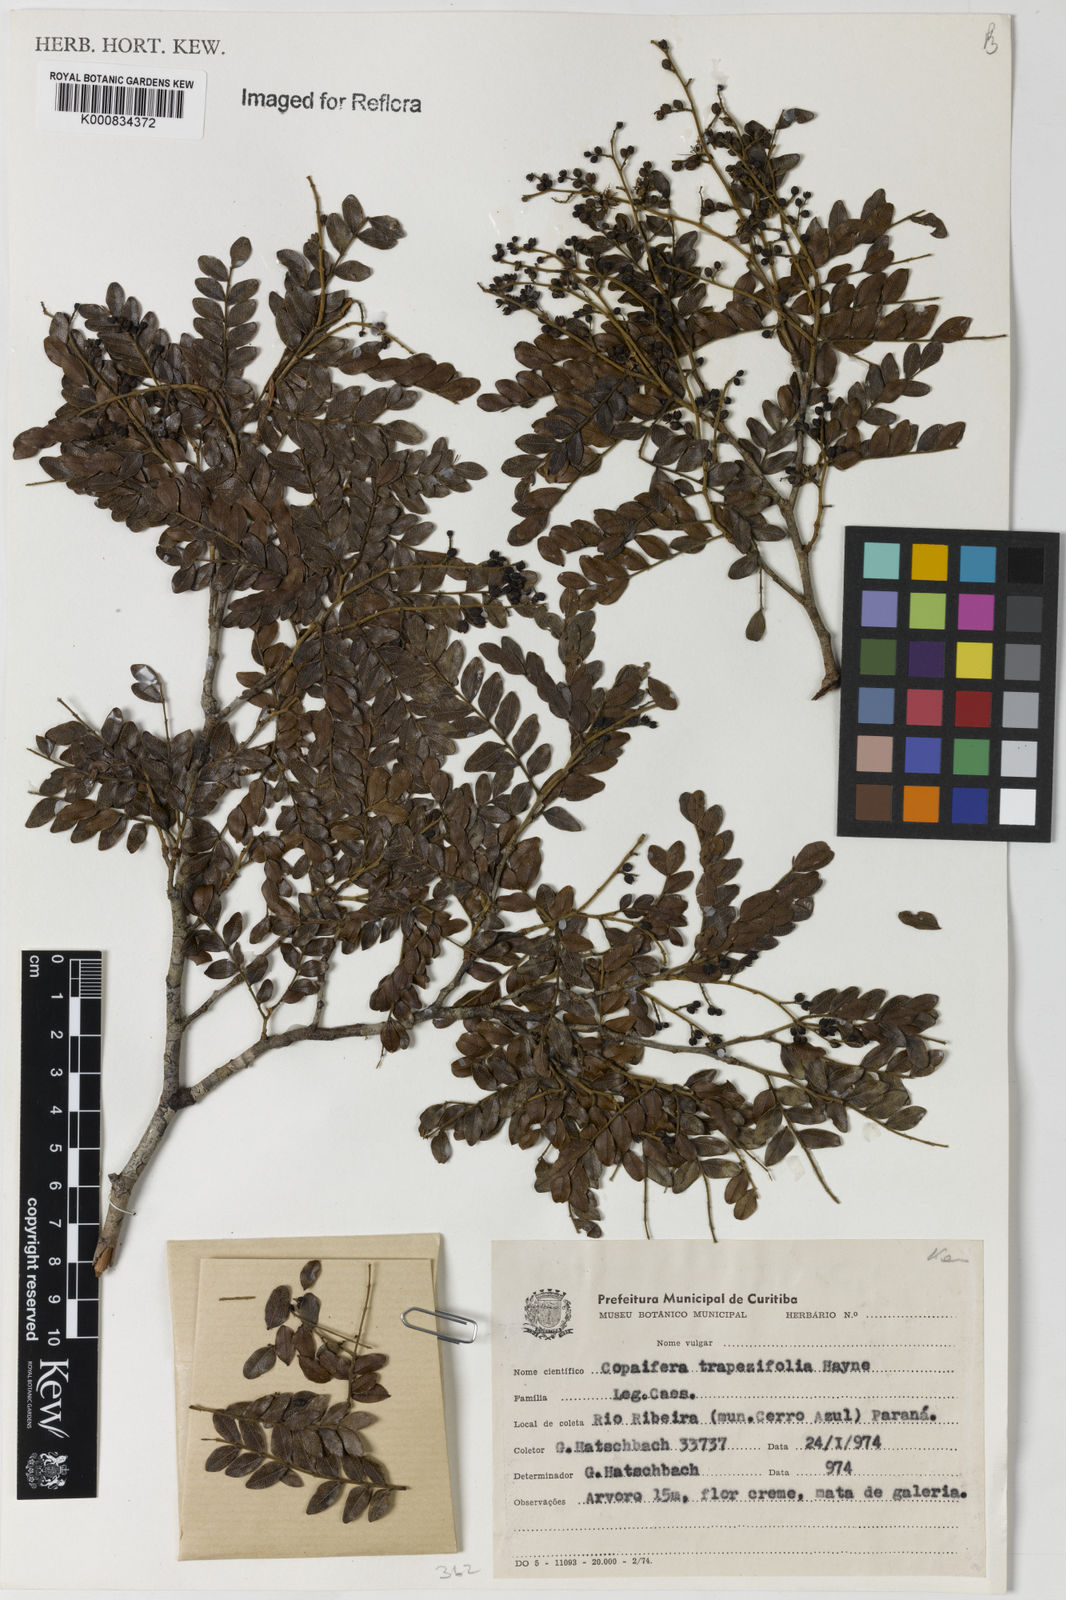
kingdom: Plantae
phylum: Tracheophyta
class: Magnoliopsida
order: Fabales
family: Fabaceae
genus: Copaifera
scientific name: Copaifera trapezifolia
